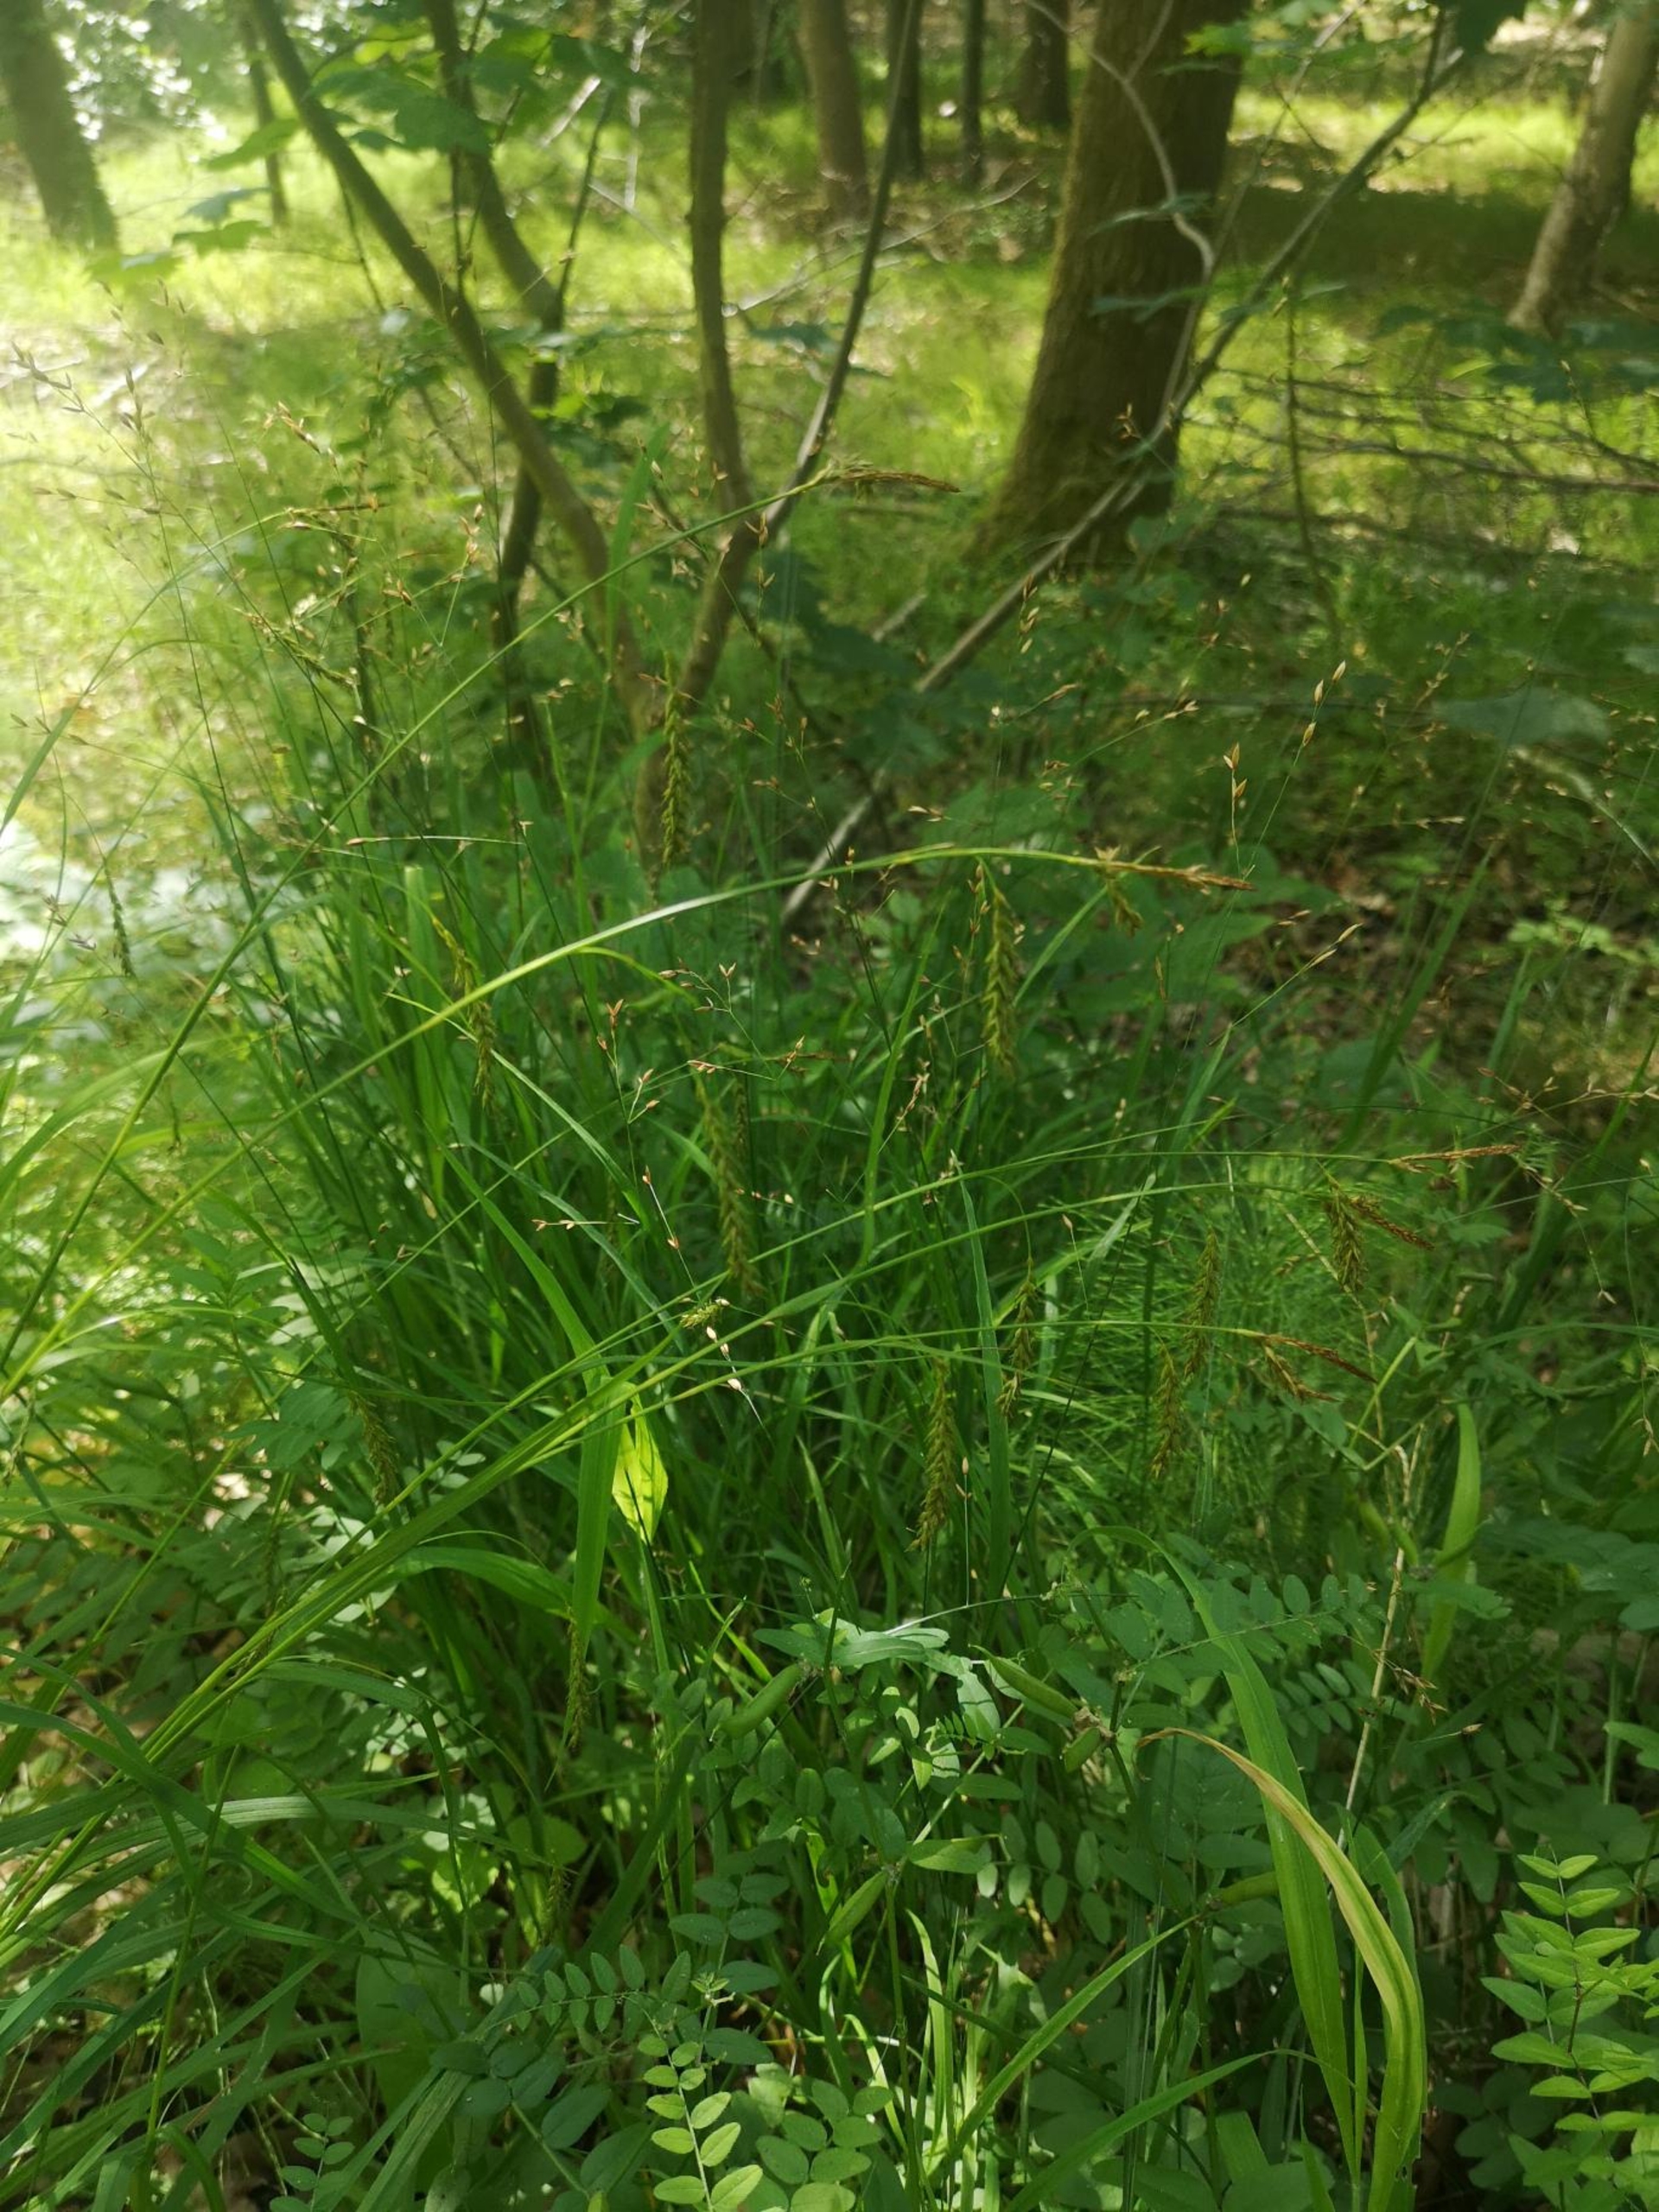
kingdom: Plantae
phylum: Tracheophyta
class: Liliopsida
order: Poales
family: Cyperaceae
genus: Carex
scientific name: Carex sylvatica
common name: Skov-star
